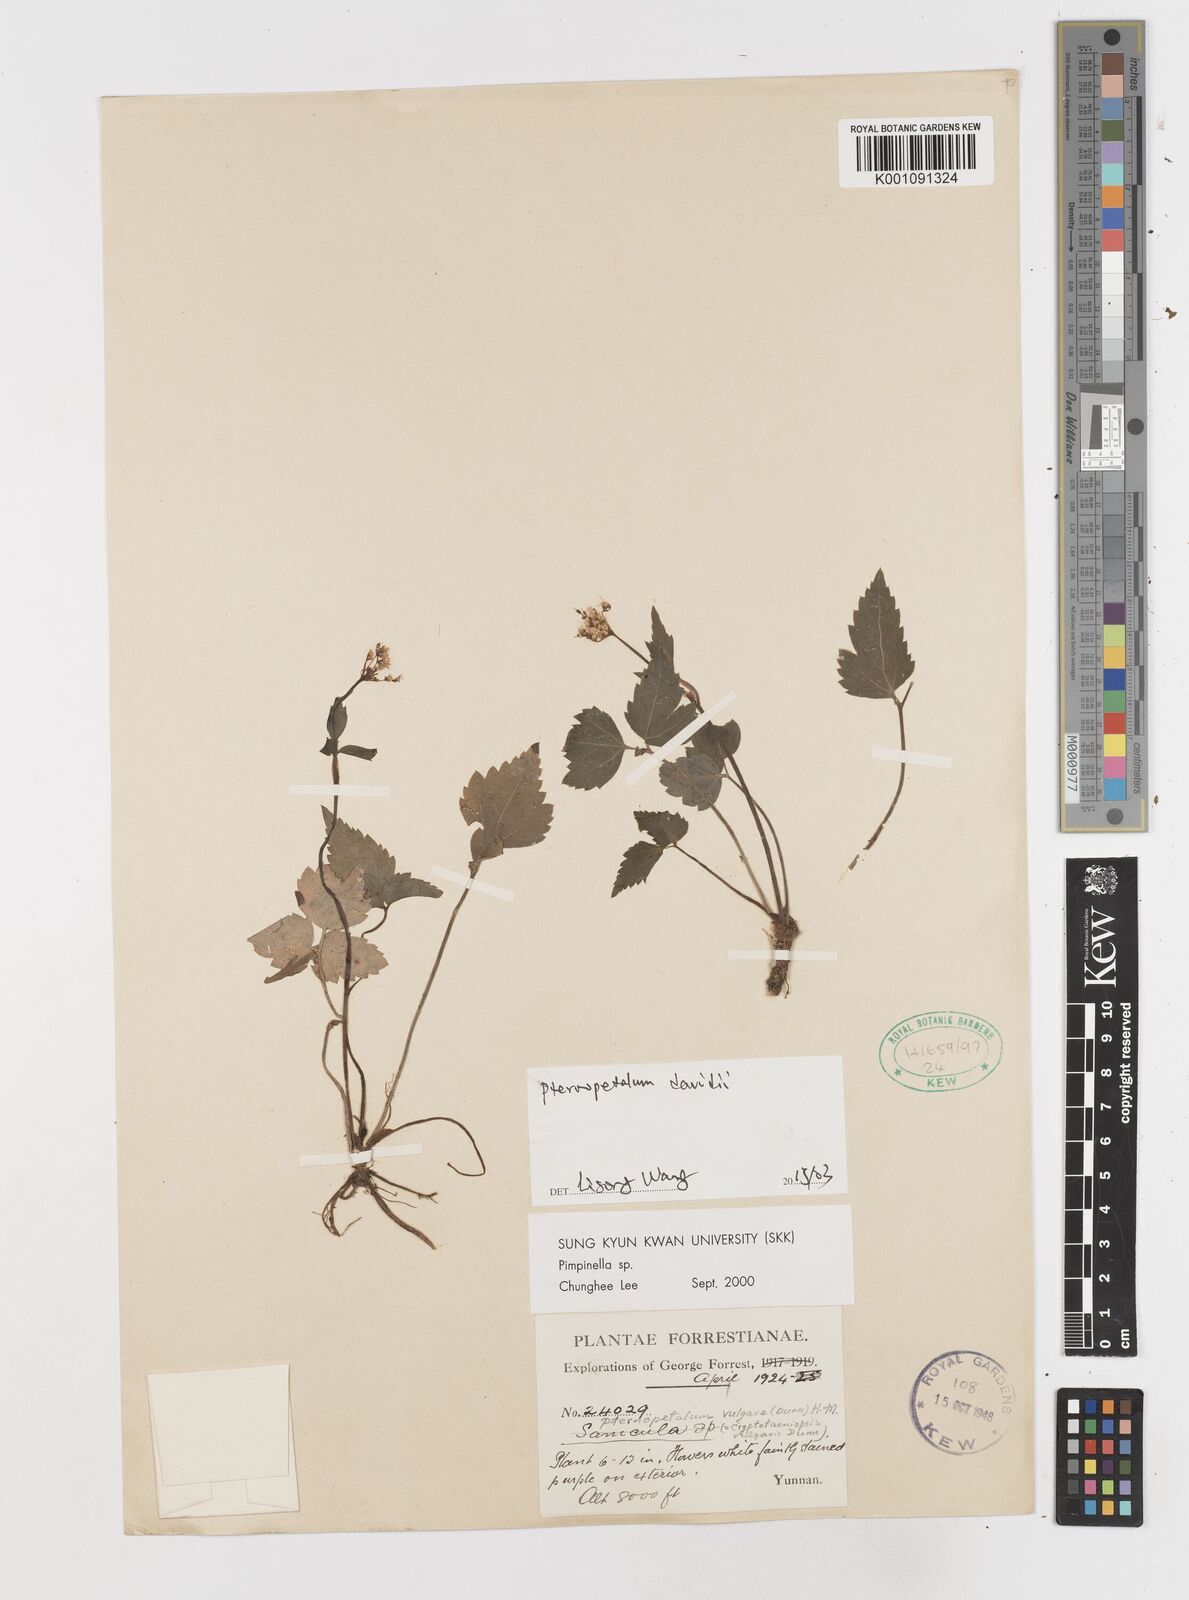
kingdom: Plantae
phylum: Tracheophyta
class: Magnoliopsida
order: Apiales
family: Apiaceae
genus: Pternopetalum
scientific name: Pternopetalum davidi
